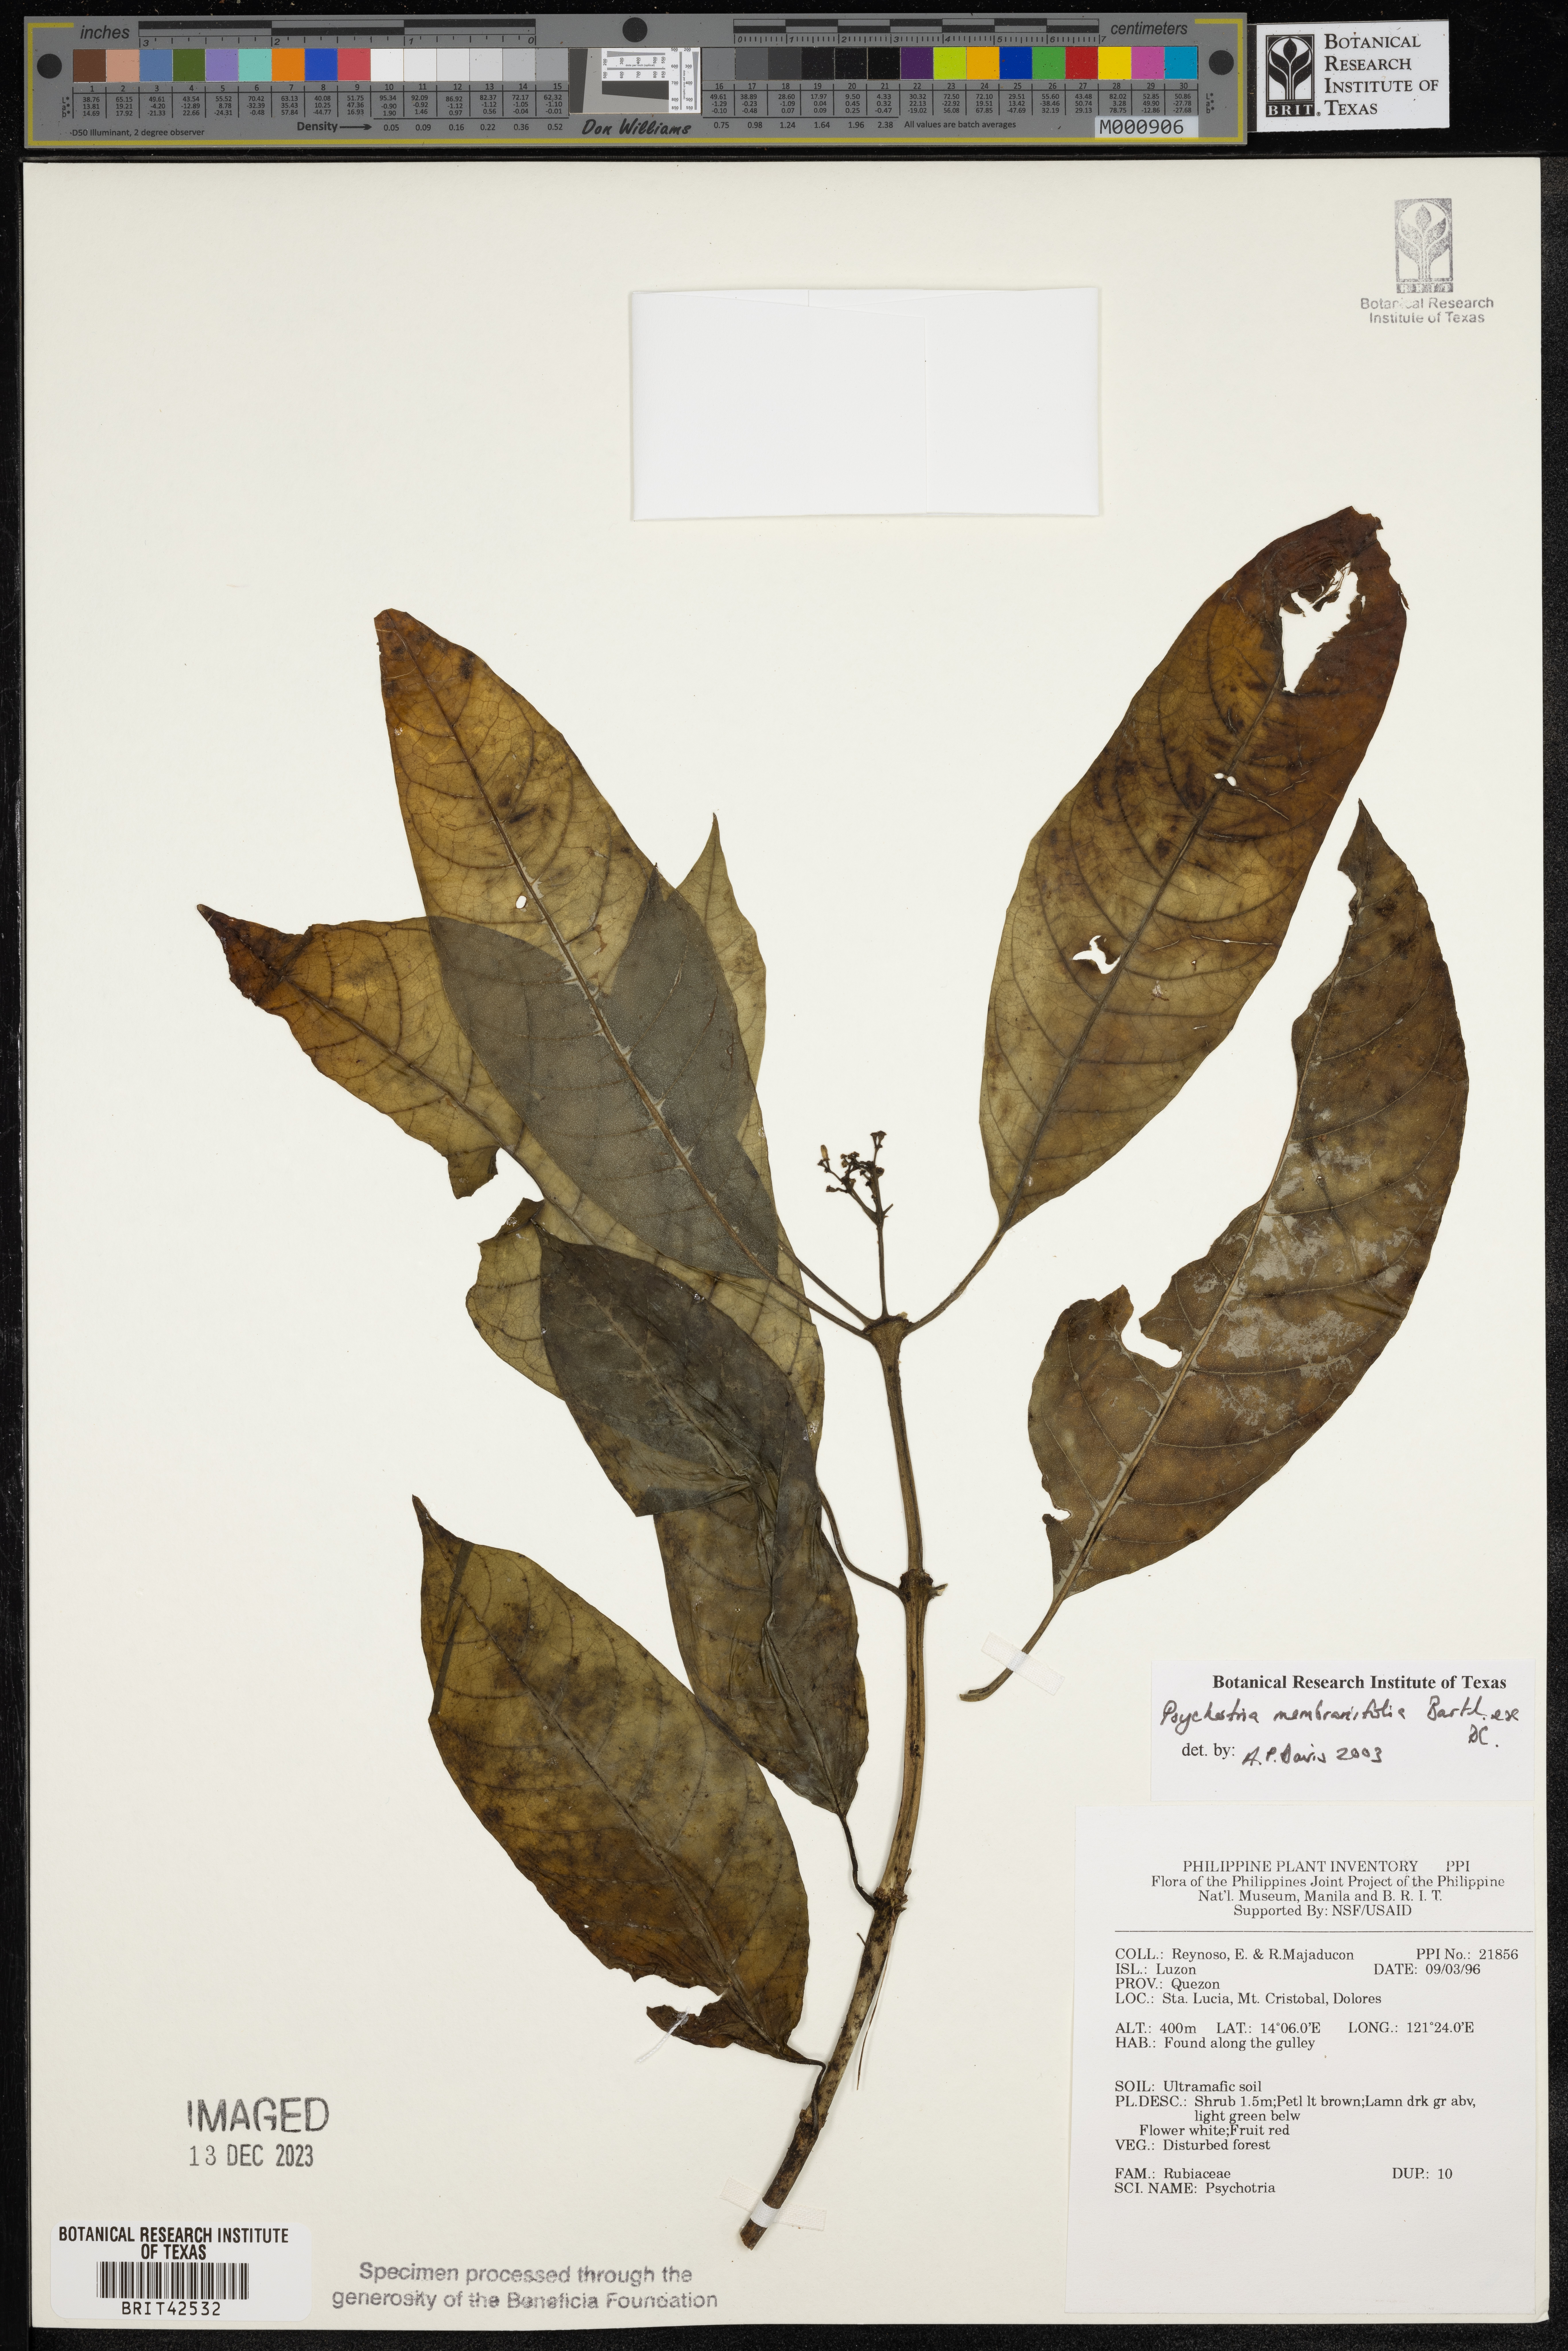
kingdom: Plantae
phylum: Tracheophyta
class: Magnoliopsida
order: Gentianales
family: Rubiaceae
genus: Eumachia
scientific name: Eumachia membranifolia
